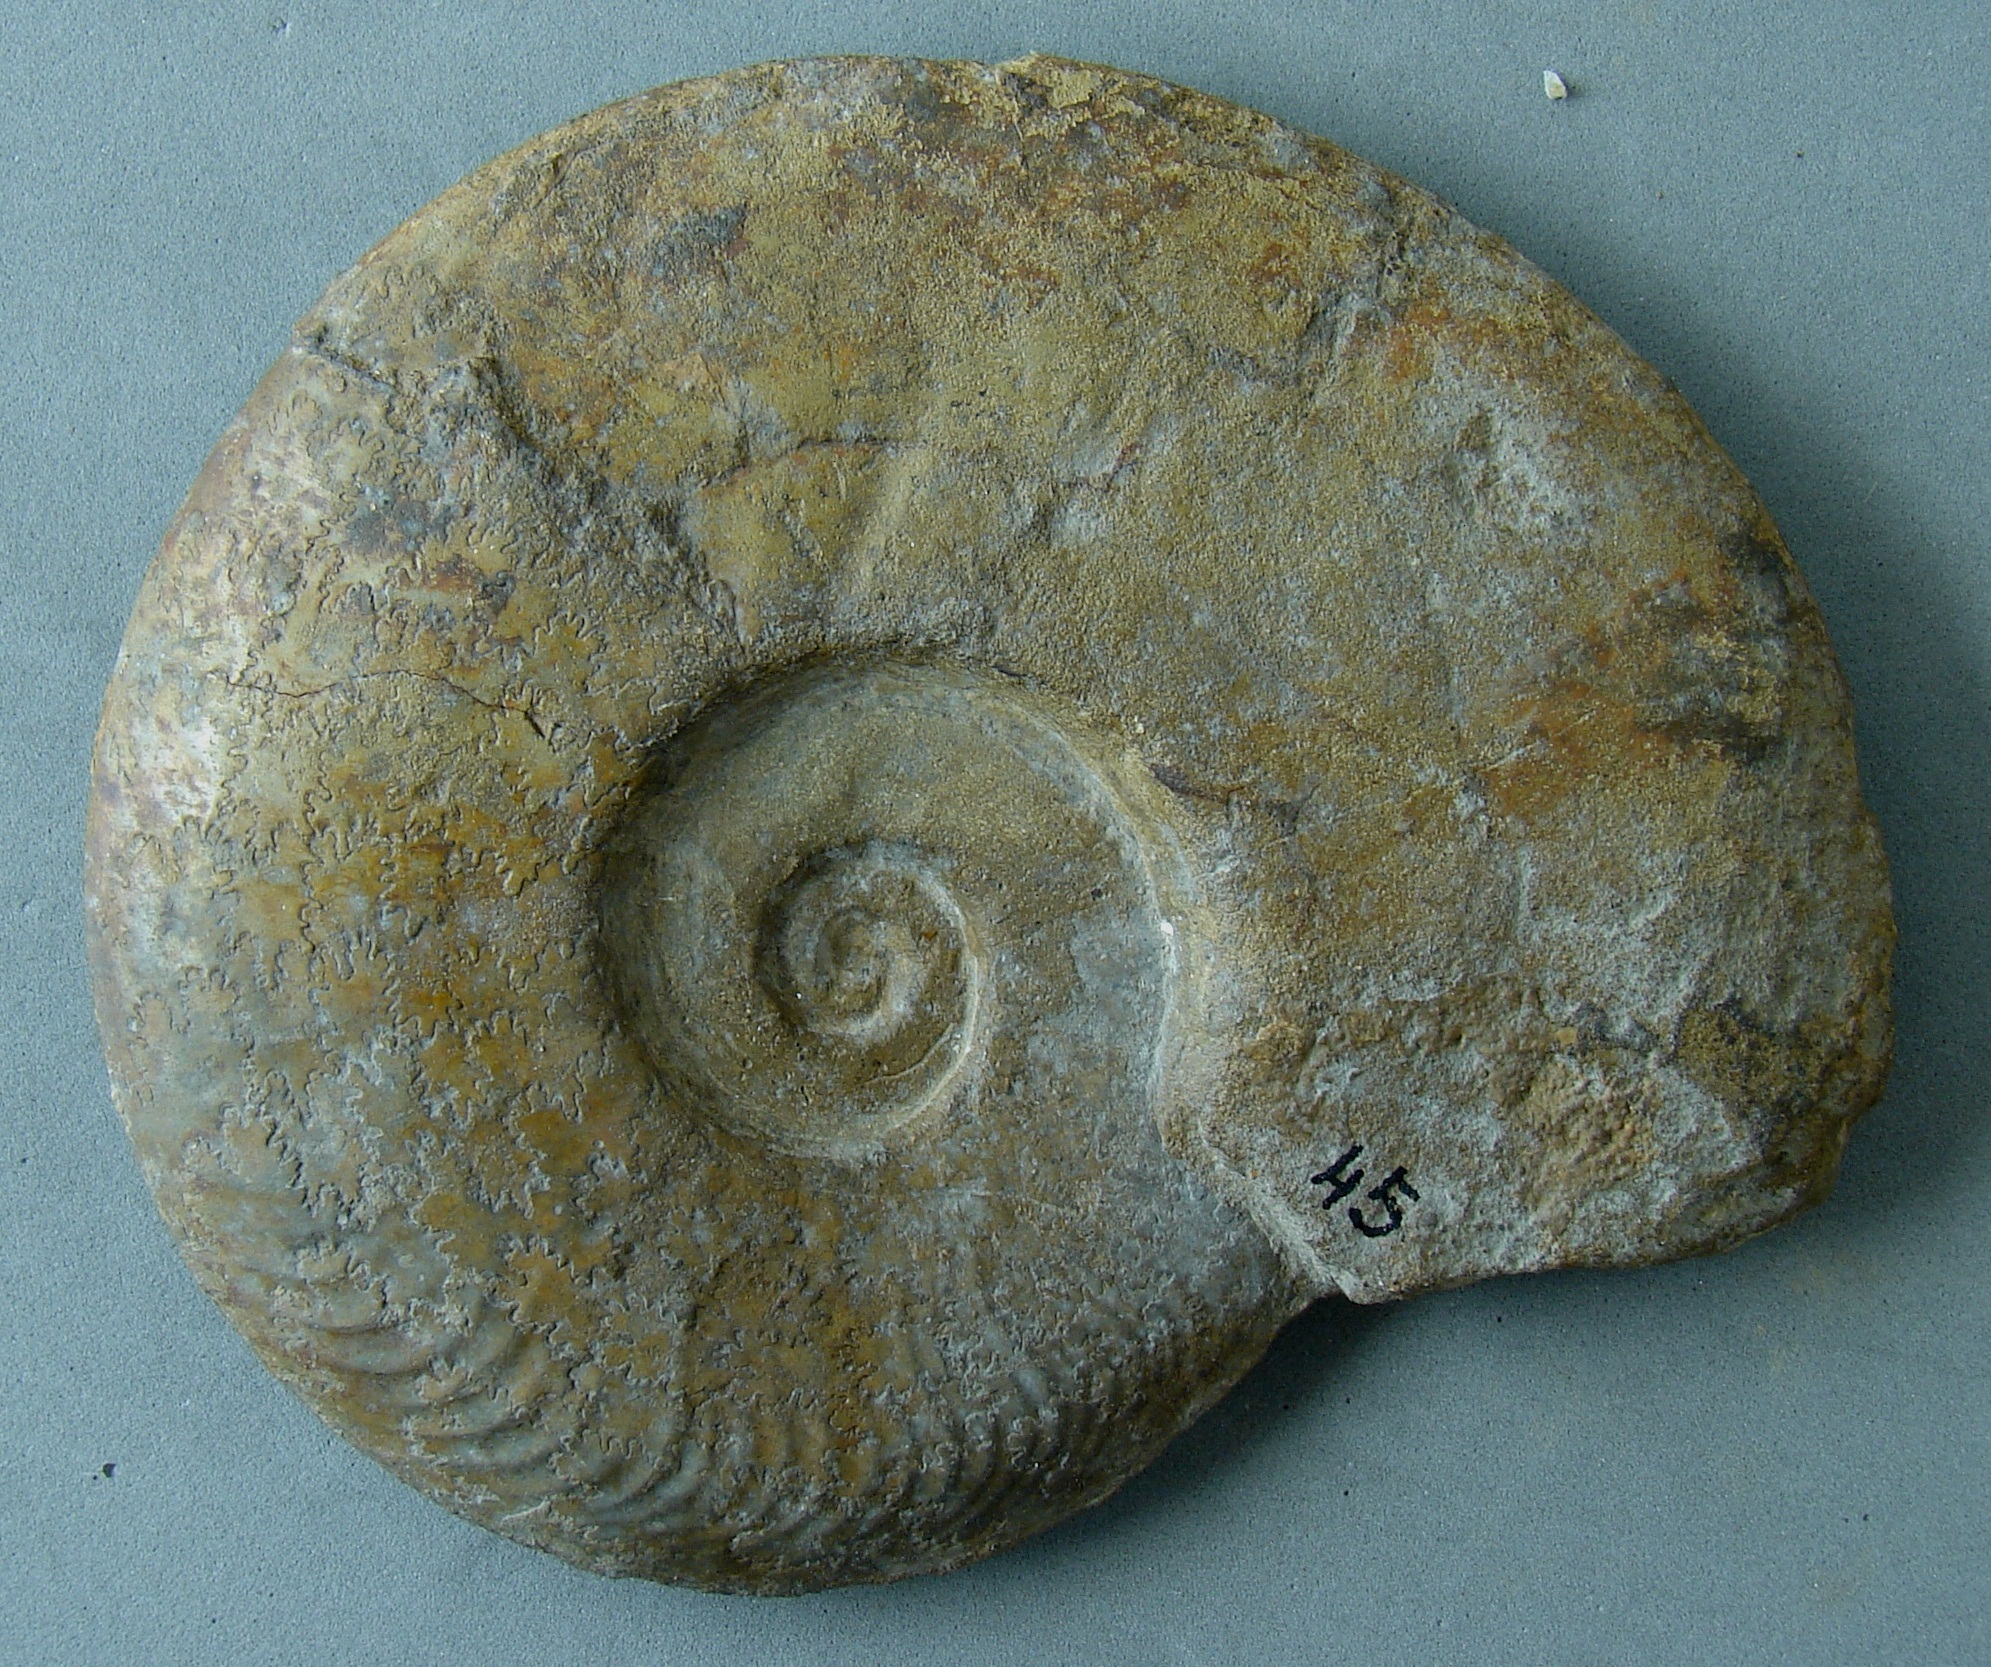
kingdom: Animalia
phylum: Mollusca
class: Cephalopoda
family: Hildoceratidae
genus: Pleydellia
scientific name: Pleydellia
